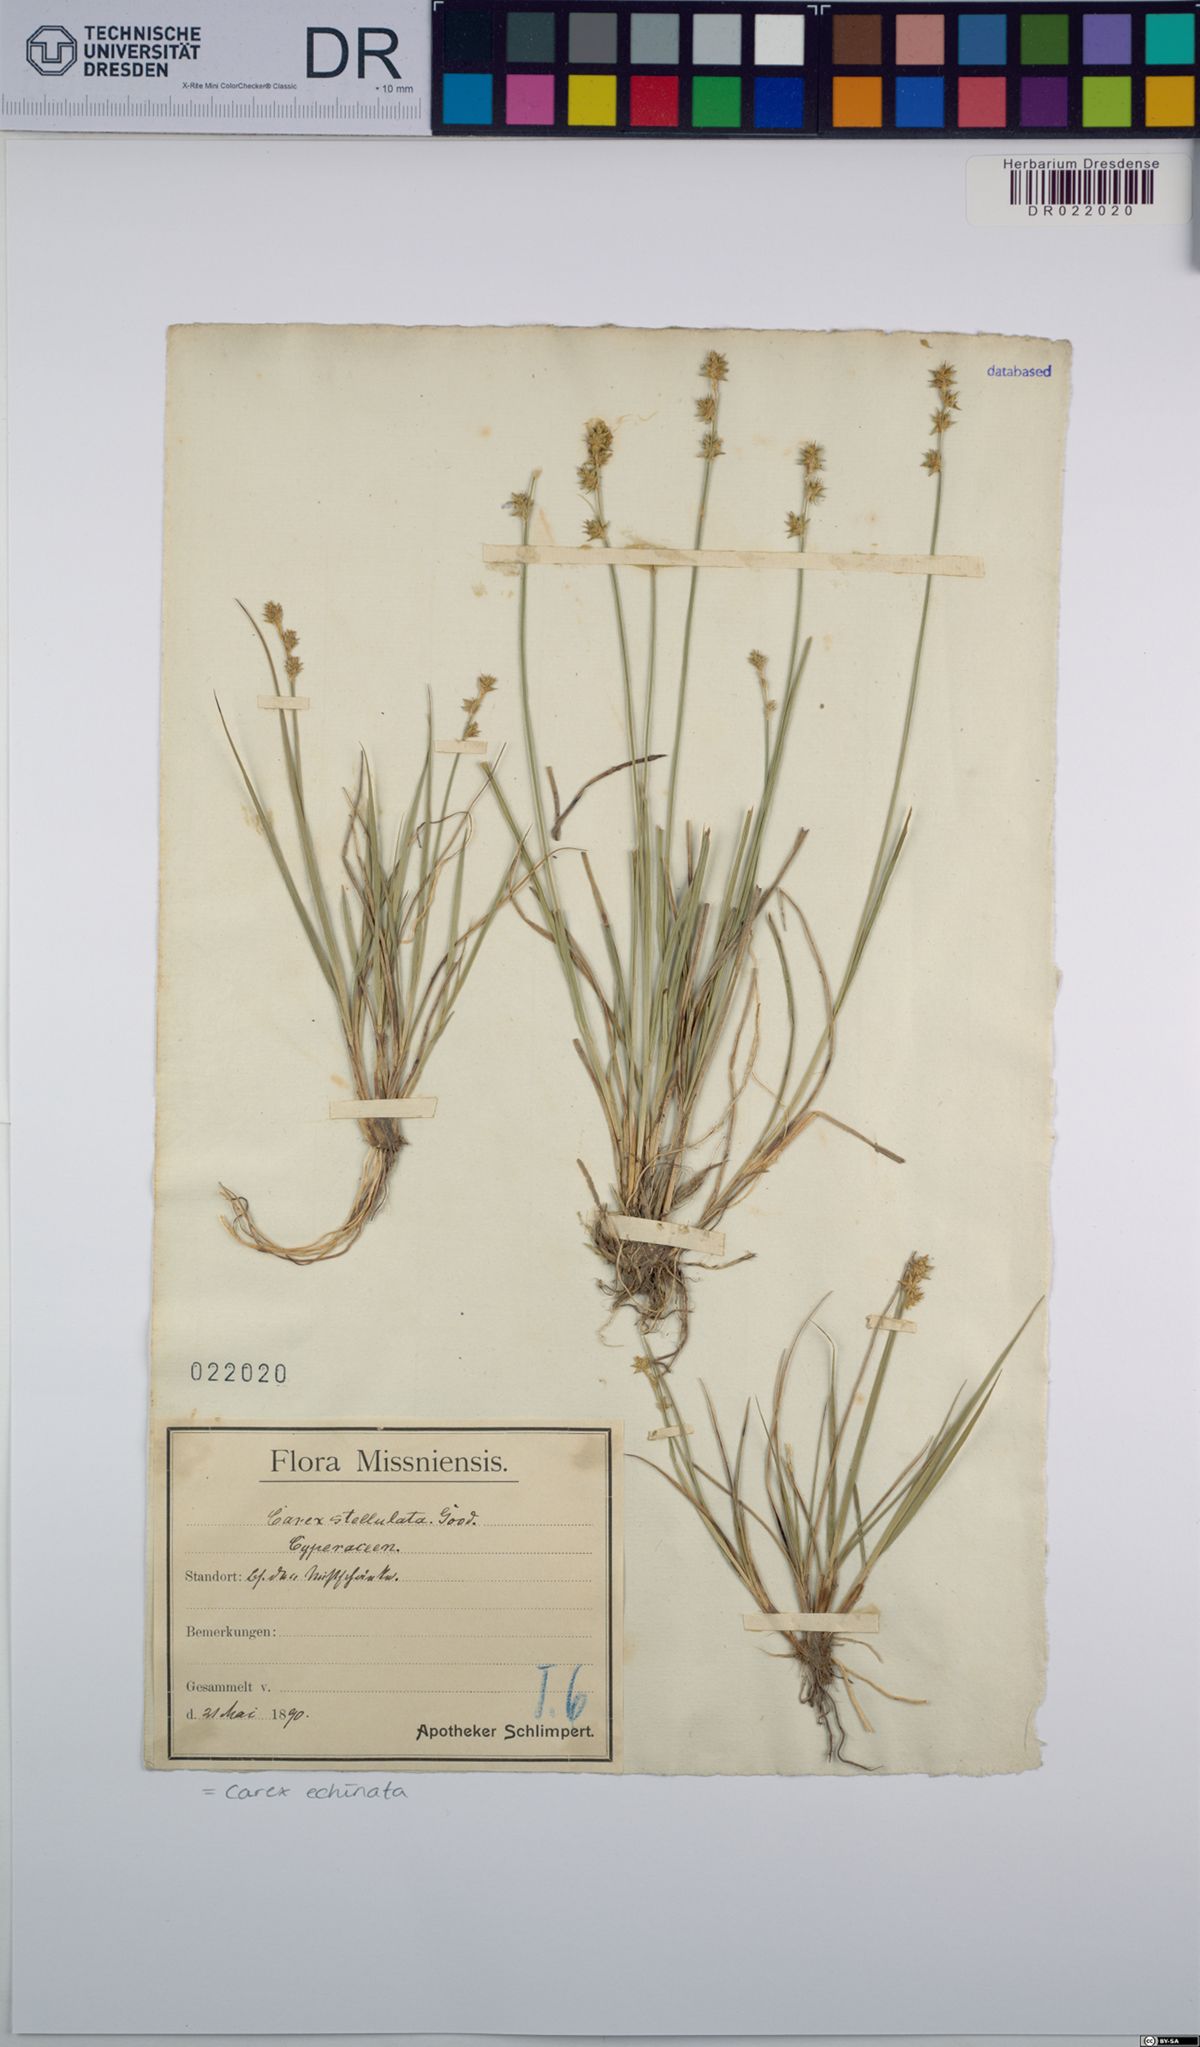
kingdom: Plantae
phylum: Tracheophyta
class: Liliopsida
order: Poales
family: Cyperaceae
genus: Carex
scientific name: Carex echinata
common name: Star sedge
